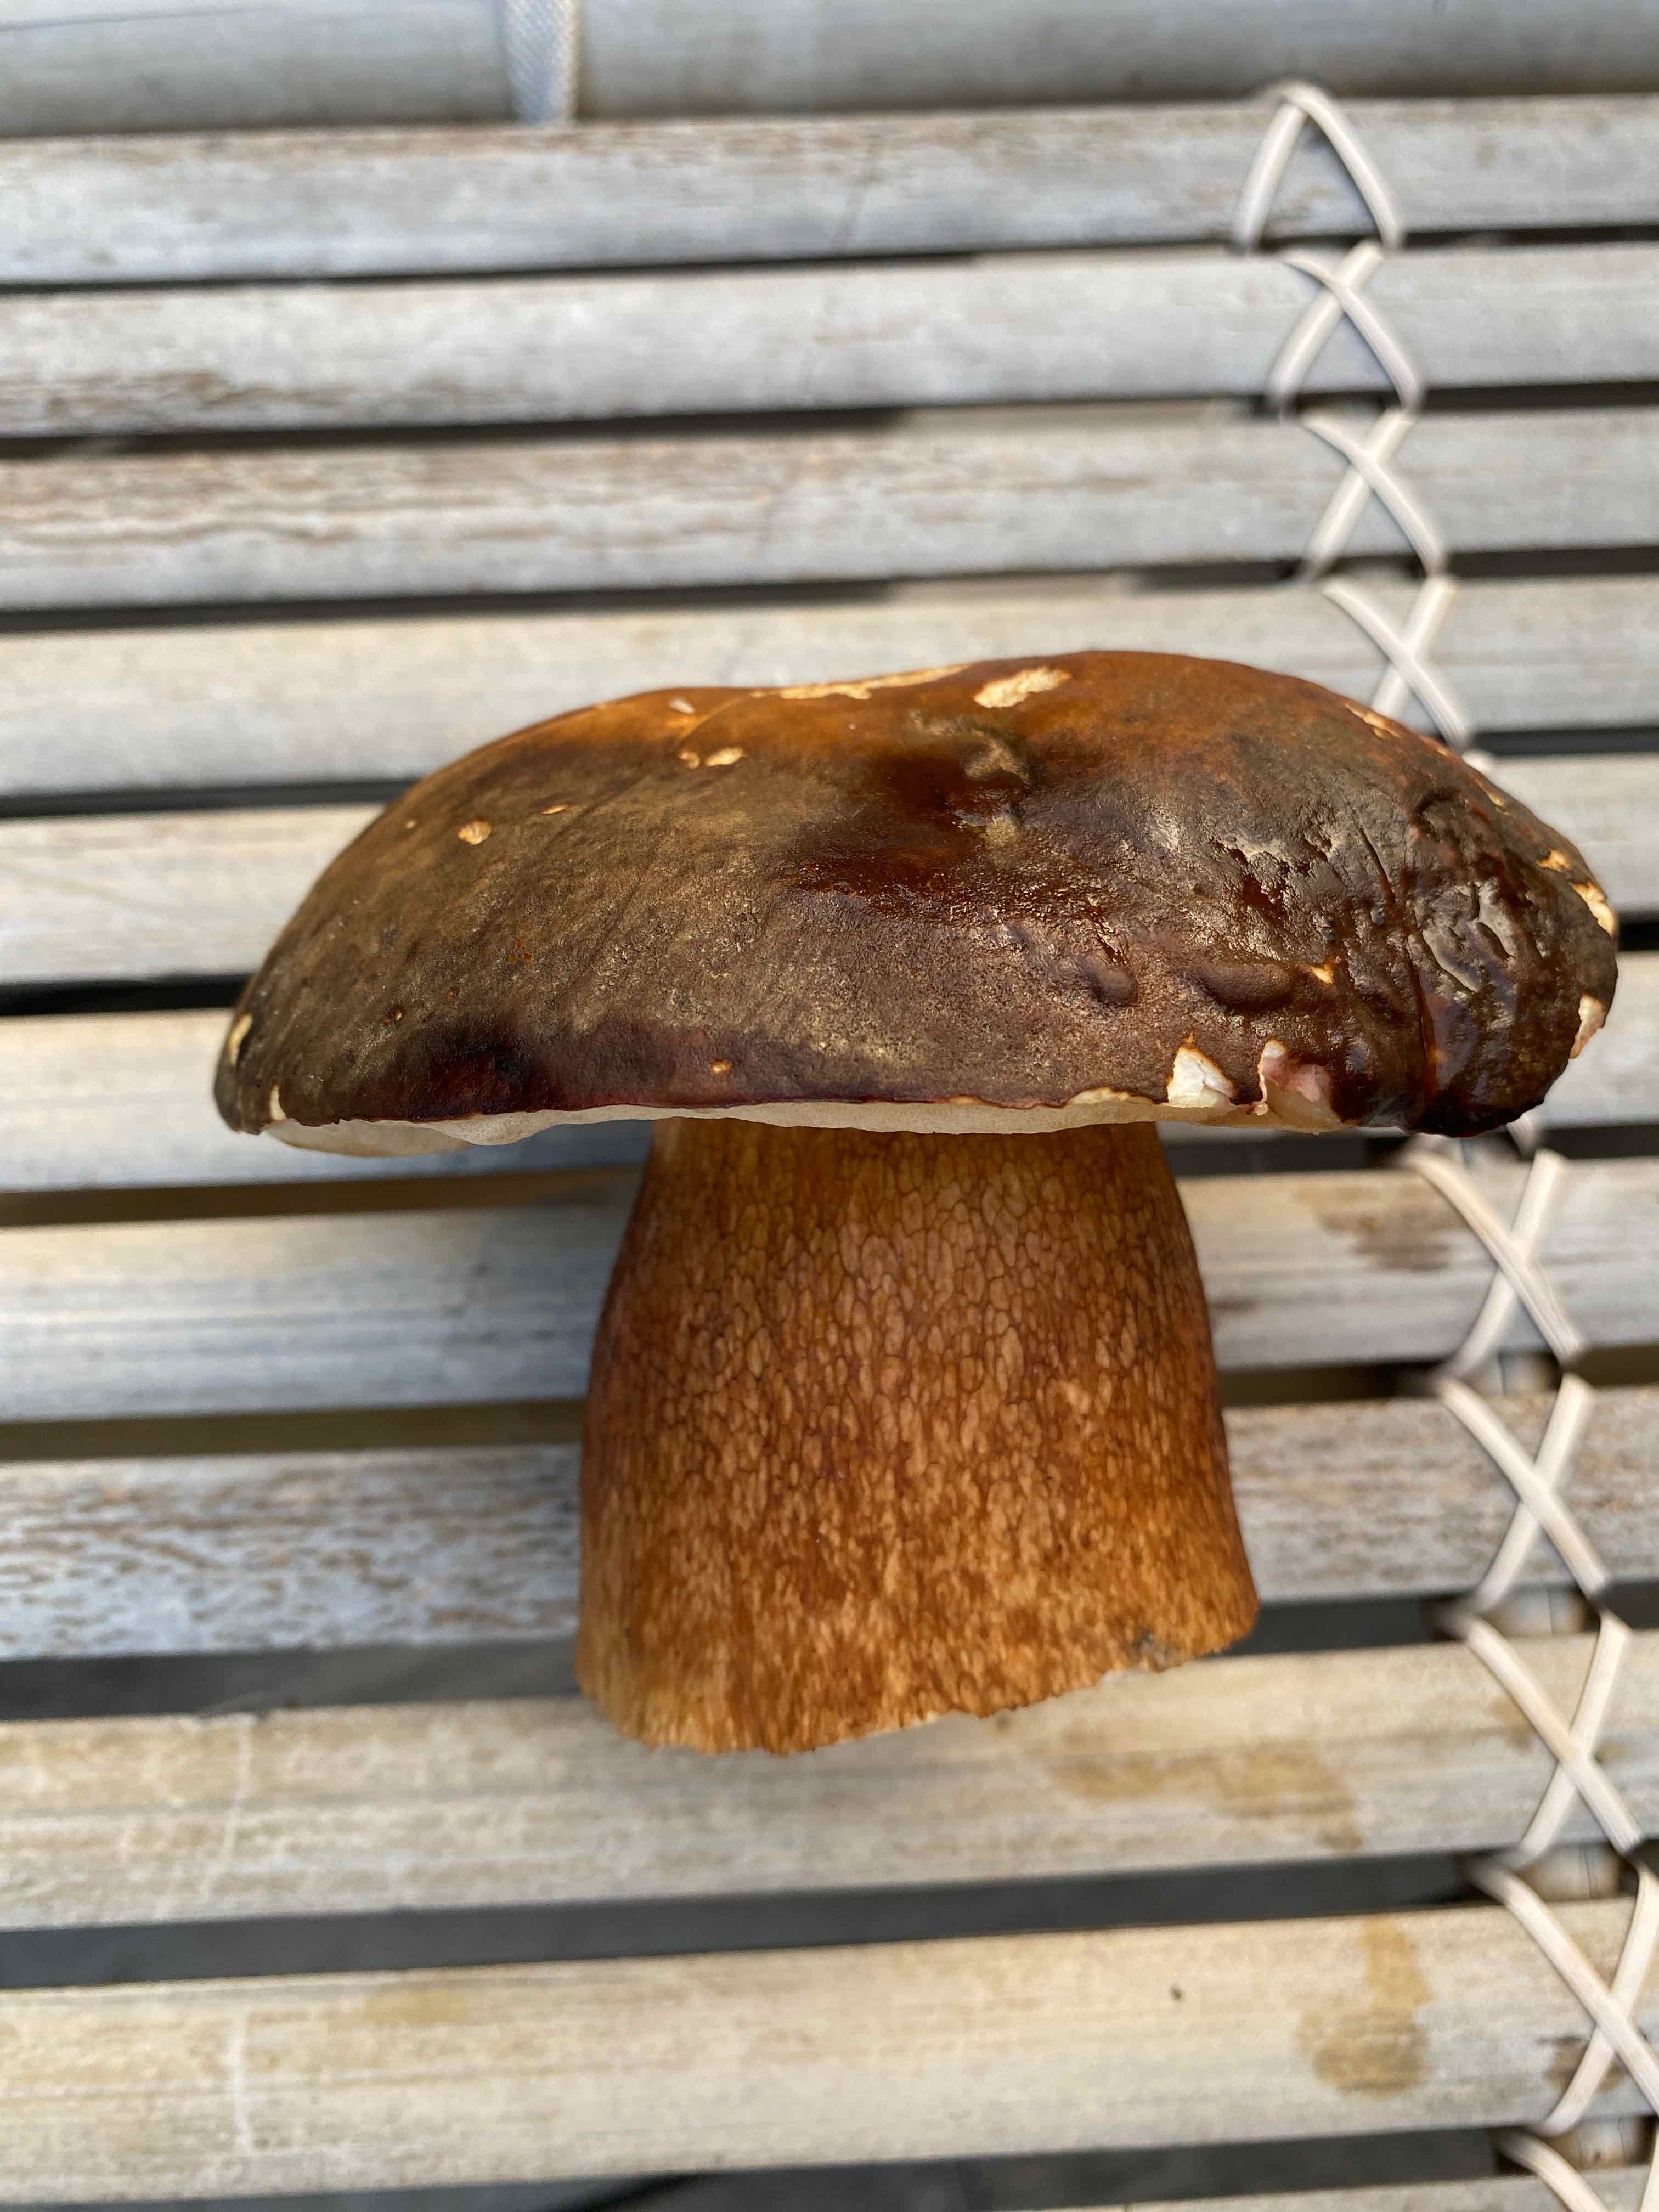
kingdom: Fungi
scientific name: Fungi
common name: bronze-rørhat
